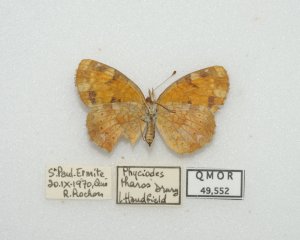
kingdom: Animalia
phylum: Arthropoda
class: Insecta
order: Lepidoptera
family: Nymphalidae
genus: Phyciodes
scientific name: Phyciodes tharos
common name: Northern Crescent
